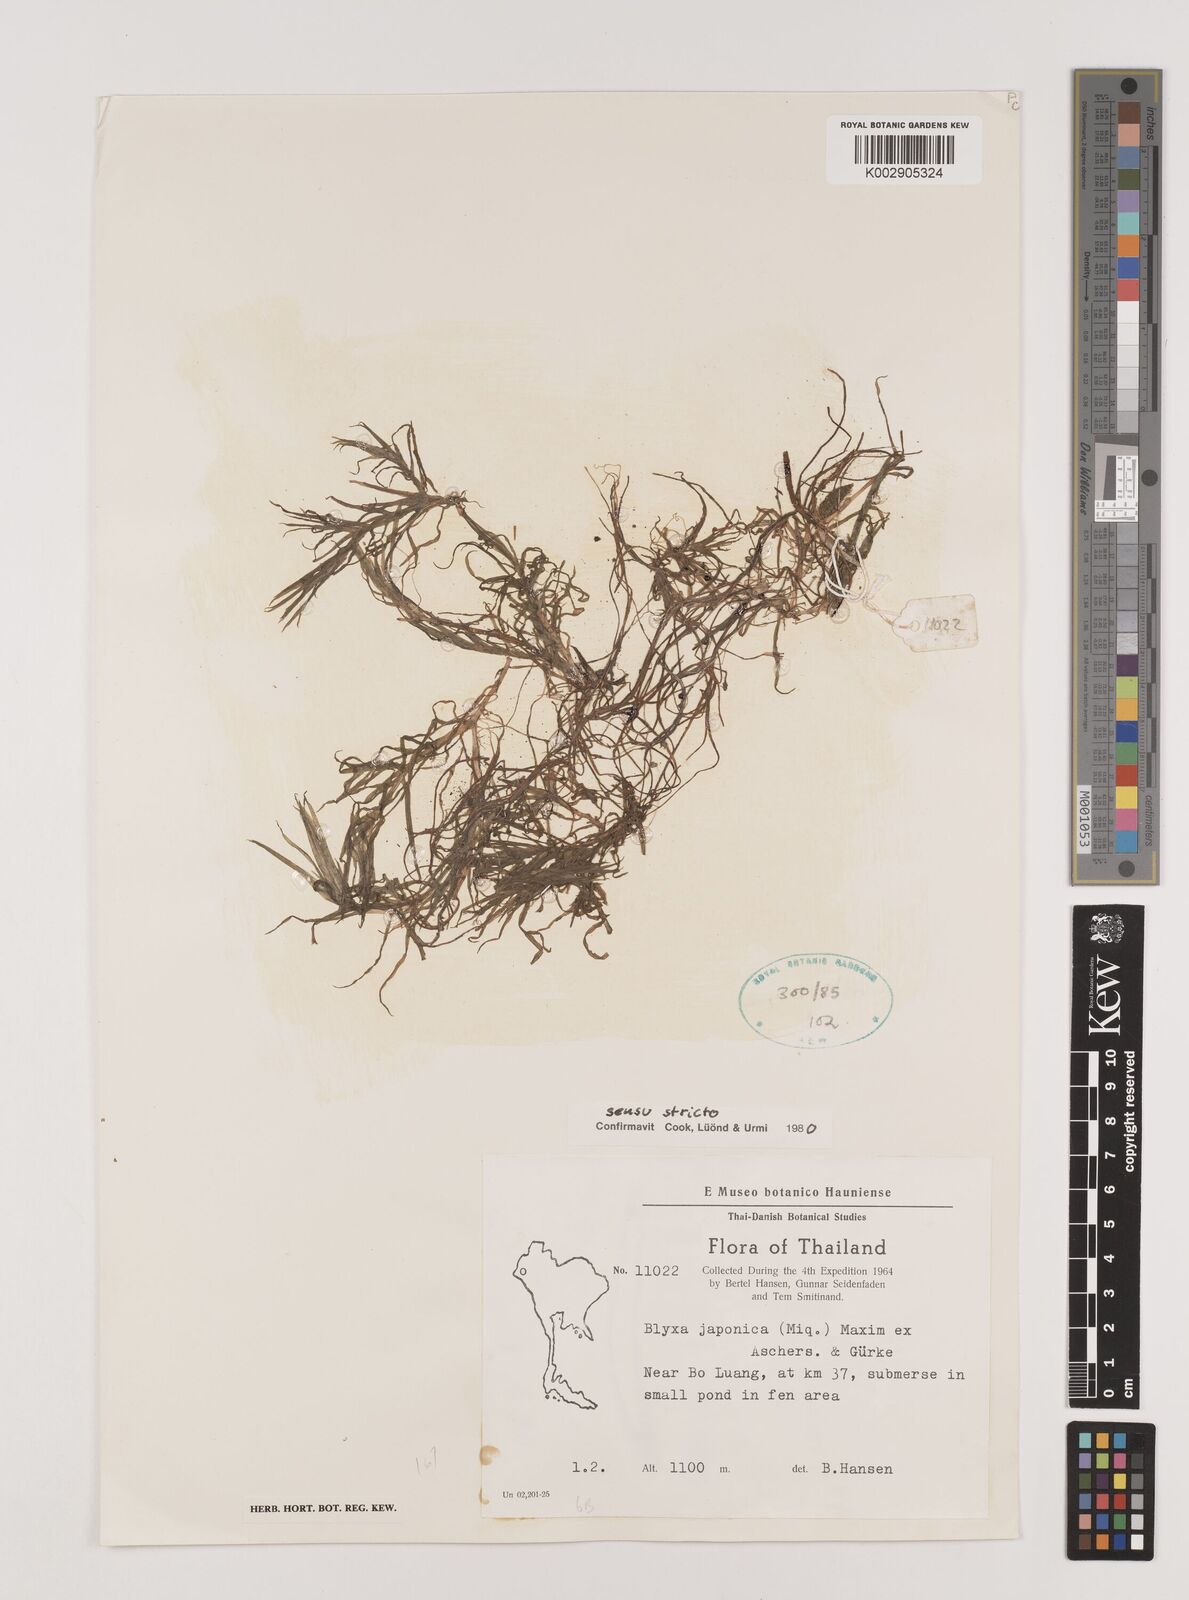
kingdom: Plantae
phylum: Tracheophyta
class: Liliopsida
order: Alismatales
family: Hydrocharitaceae
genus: Blyxa
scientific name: Blyxa japonica
